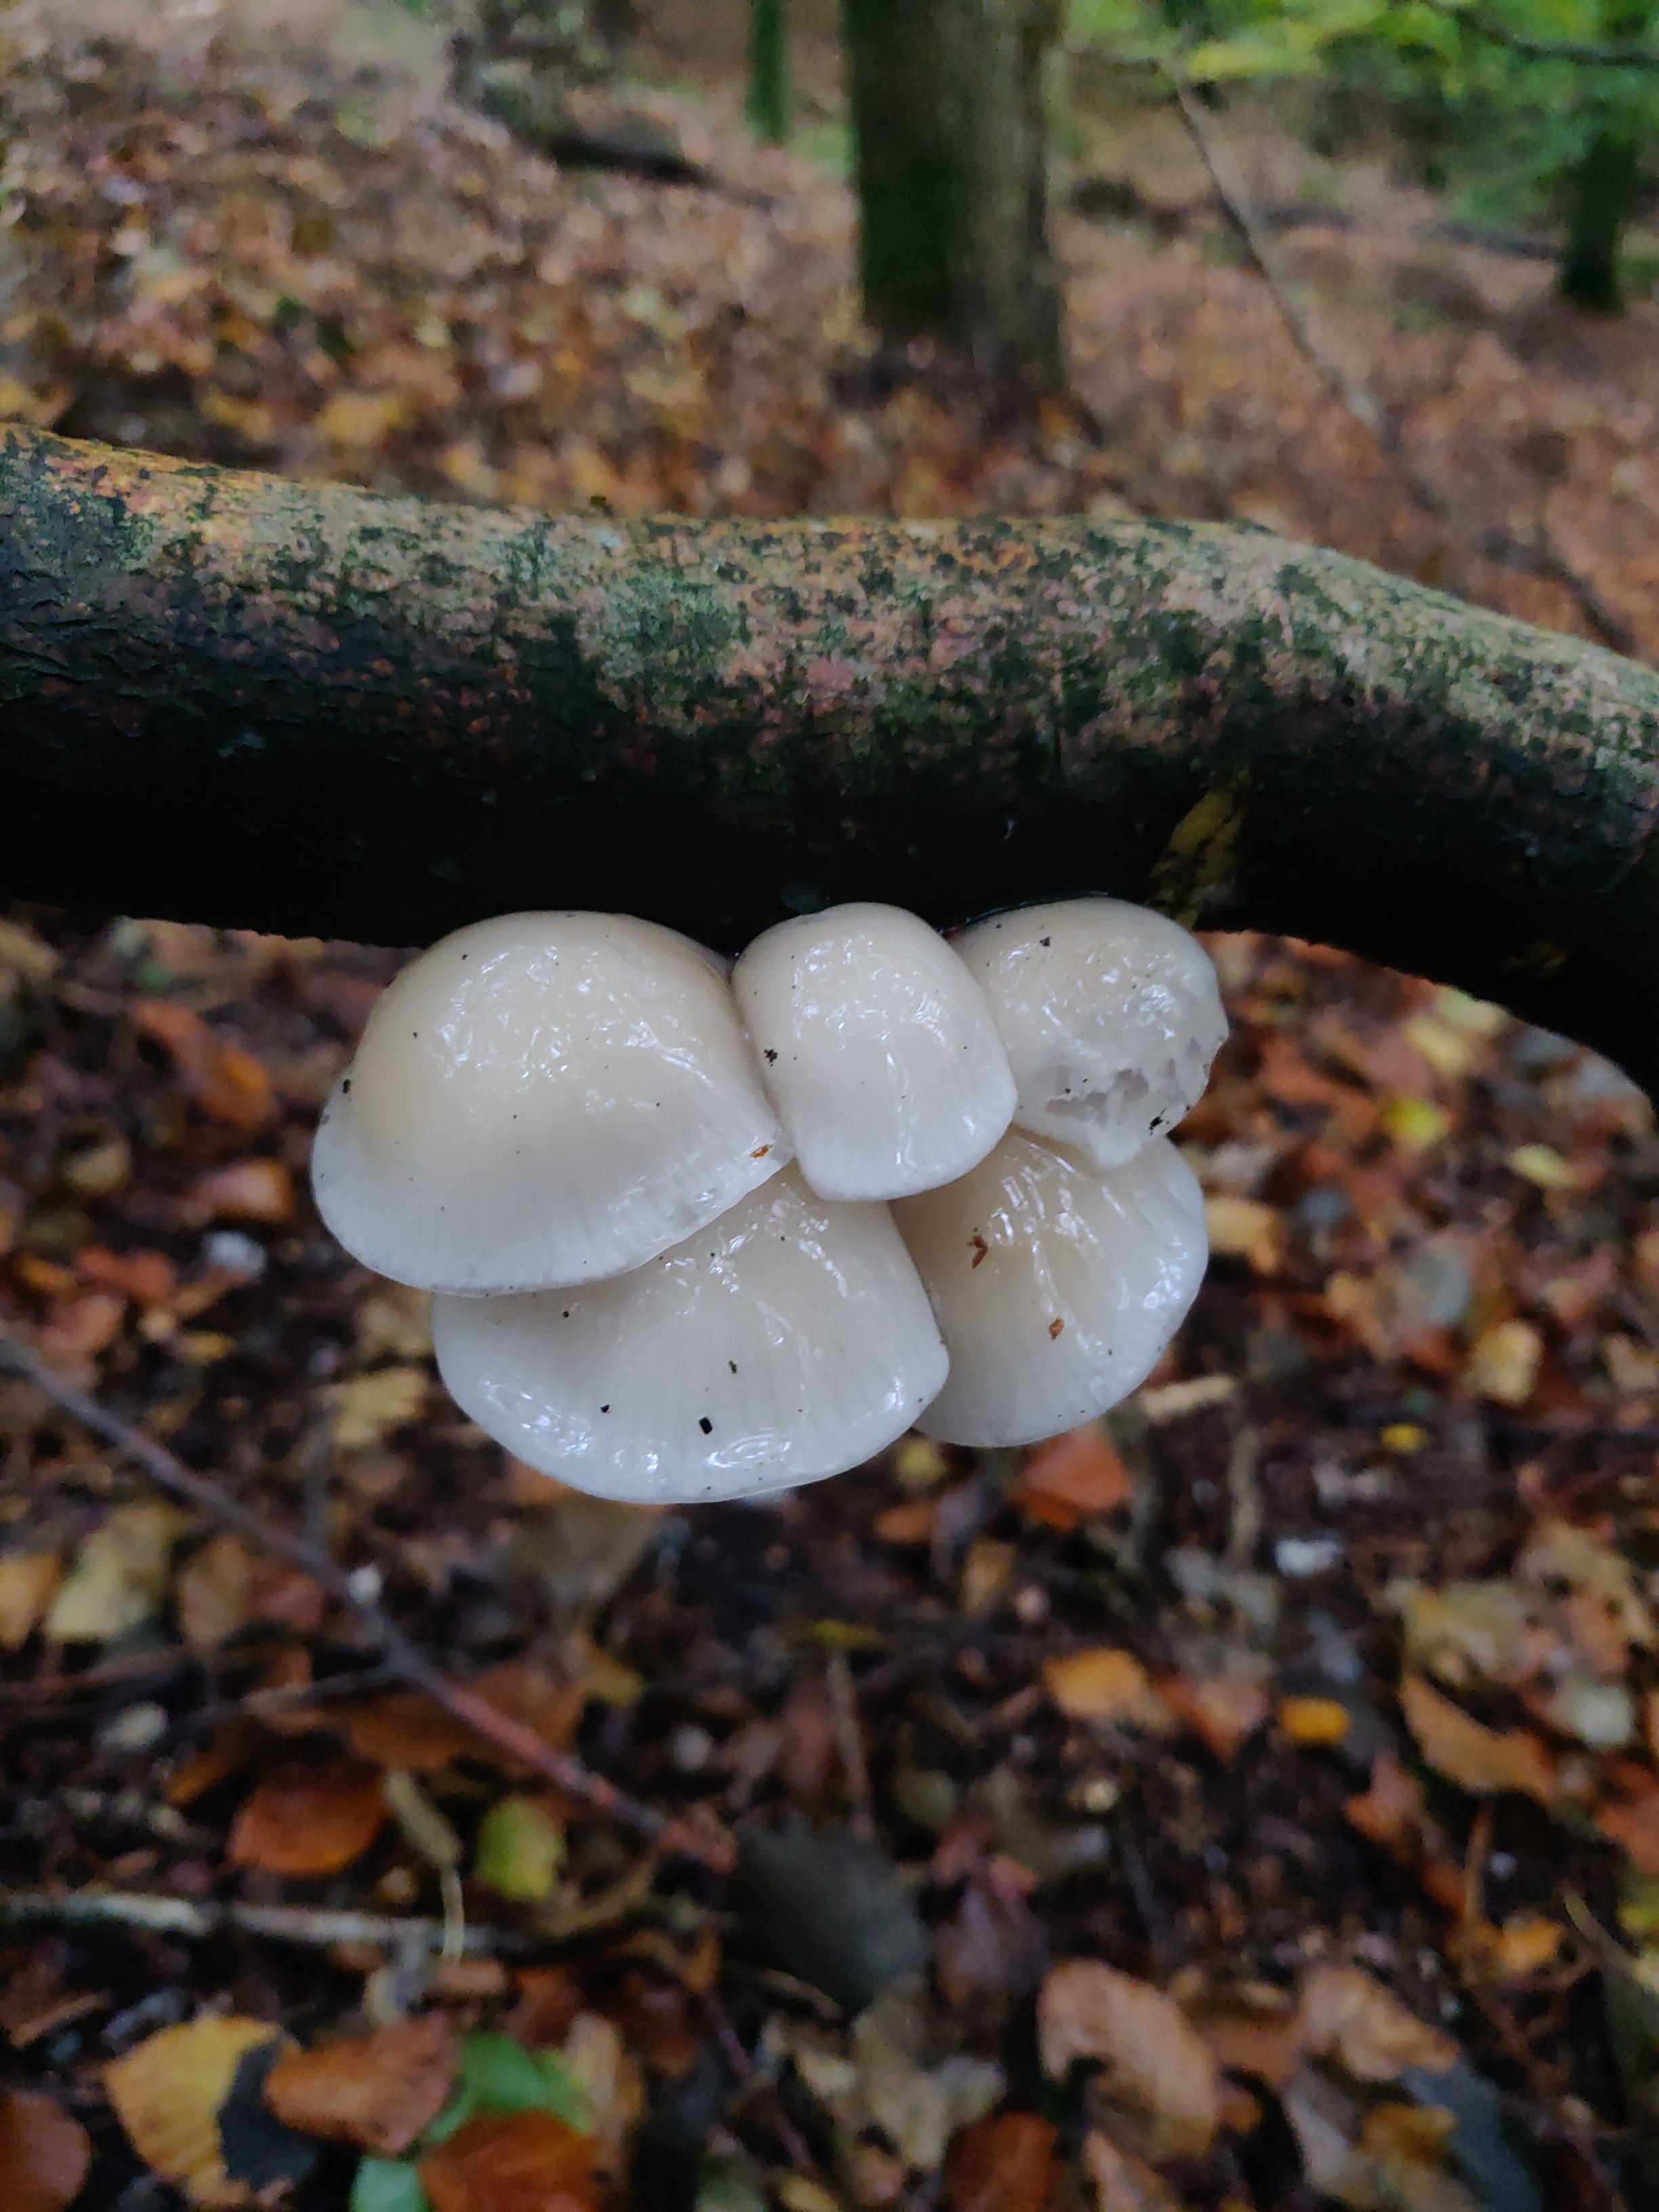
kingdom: Fungi
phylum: Basidiomycota
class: Agaricomycetes
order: Agaricales
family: Physalacriaceae
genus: Mucidula
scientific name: Mucidula mucida
